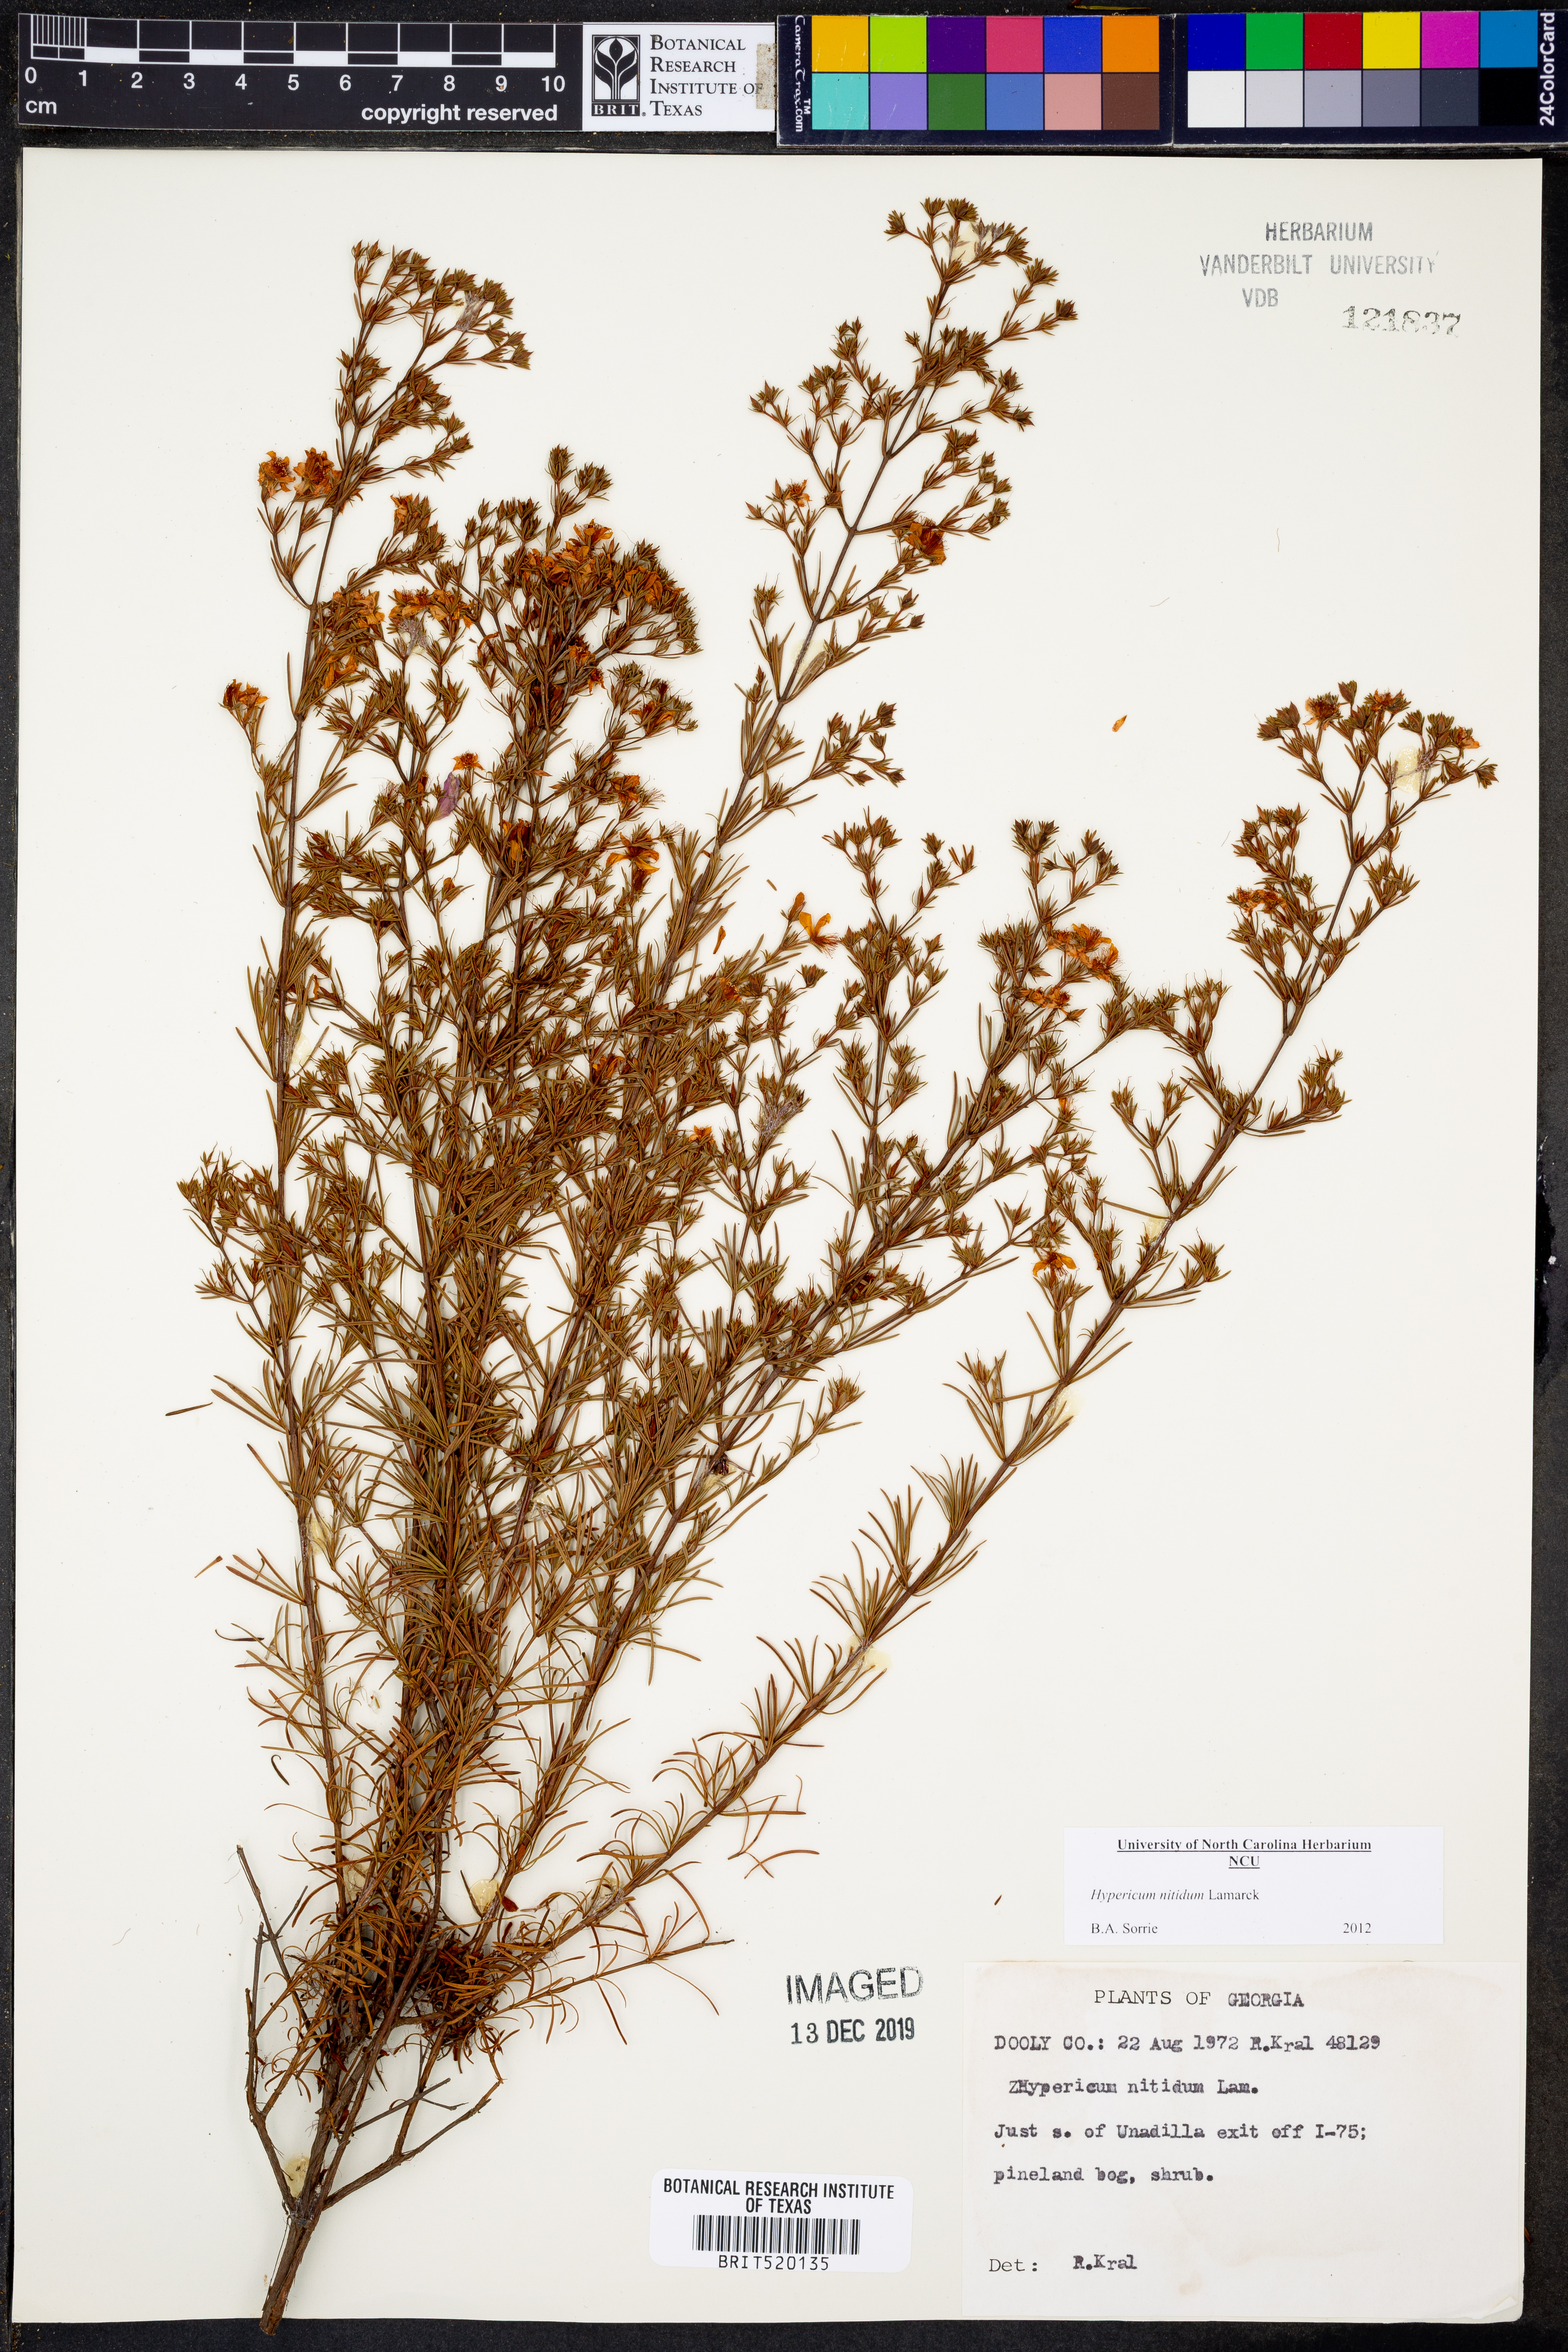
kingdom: Plantae
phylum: Tracheophyta
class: Magnoliopsida
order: Malpighiales
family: Hypericaceae
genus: Hypericum
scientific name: Hypericum nitidum
